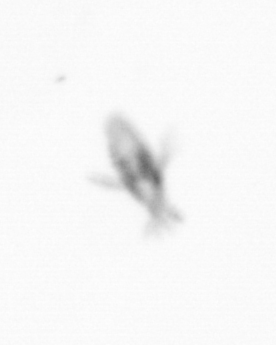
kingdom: Animalia
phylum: Arthropoda
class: Copepoda
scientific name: Copepoda
